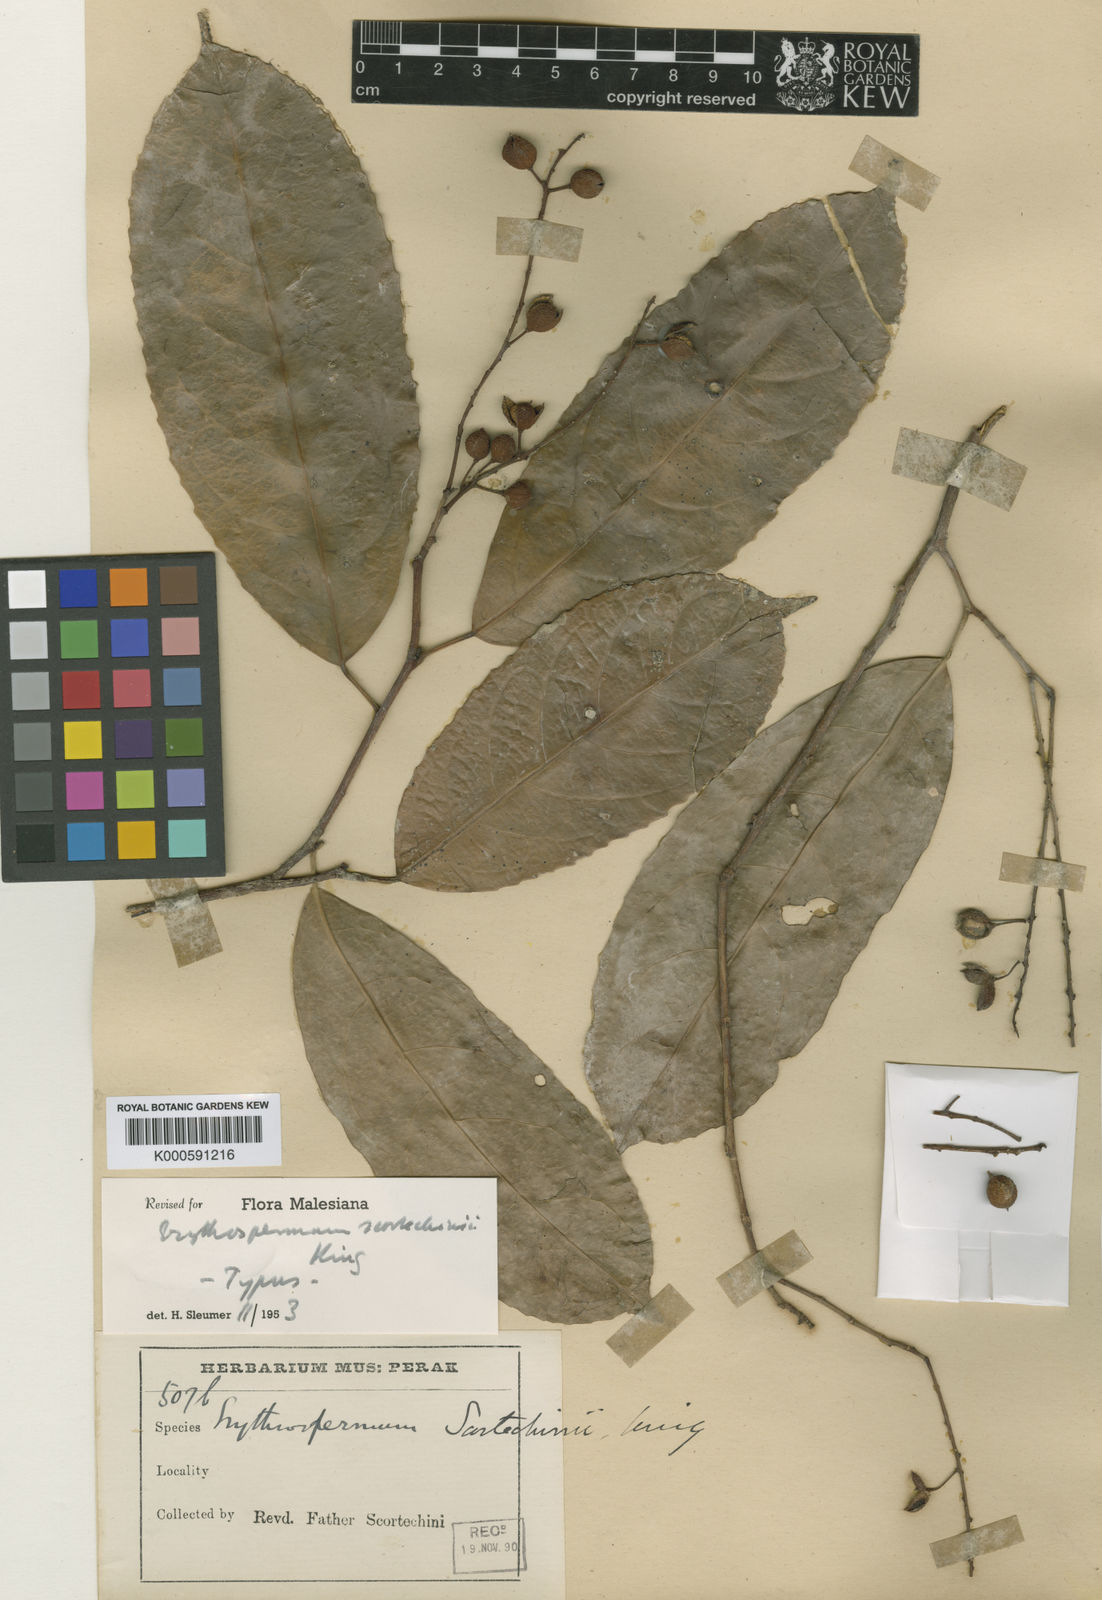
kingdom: Plantae
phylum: Tracheophyta
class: Magnoliopsida
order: Malpighiales
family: Achariaceae
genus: Erythrospermum
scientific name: Erythrospermum candidum
